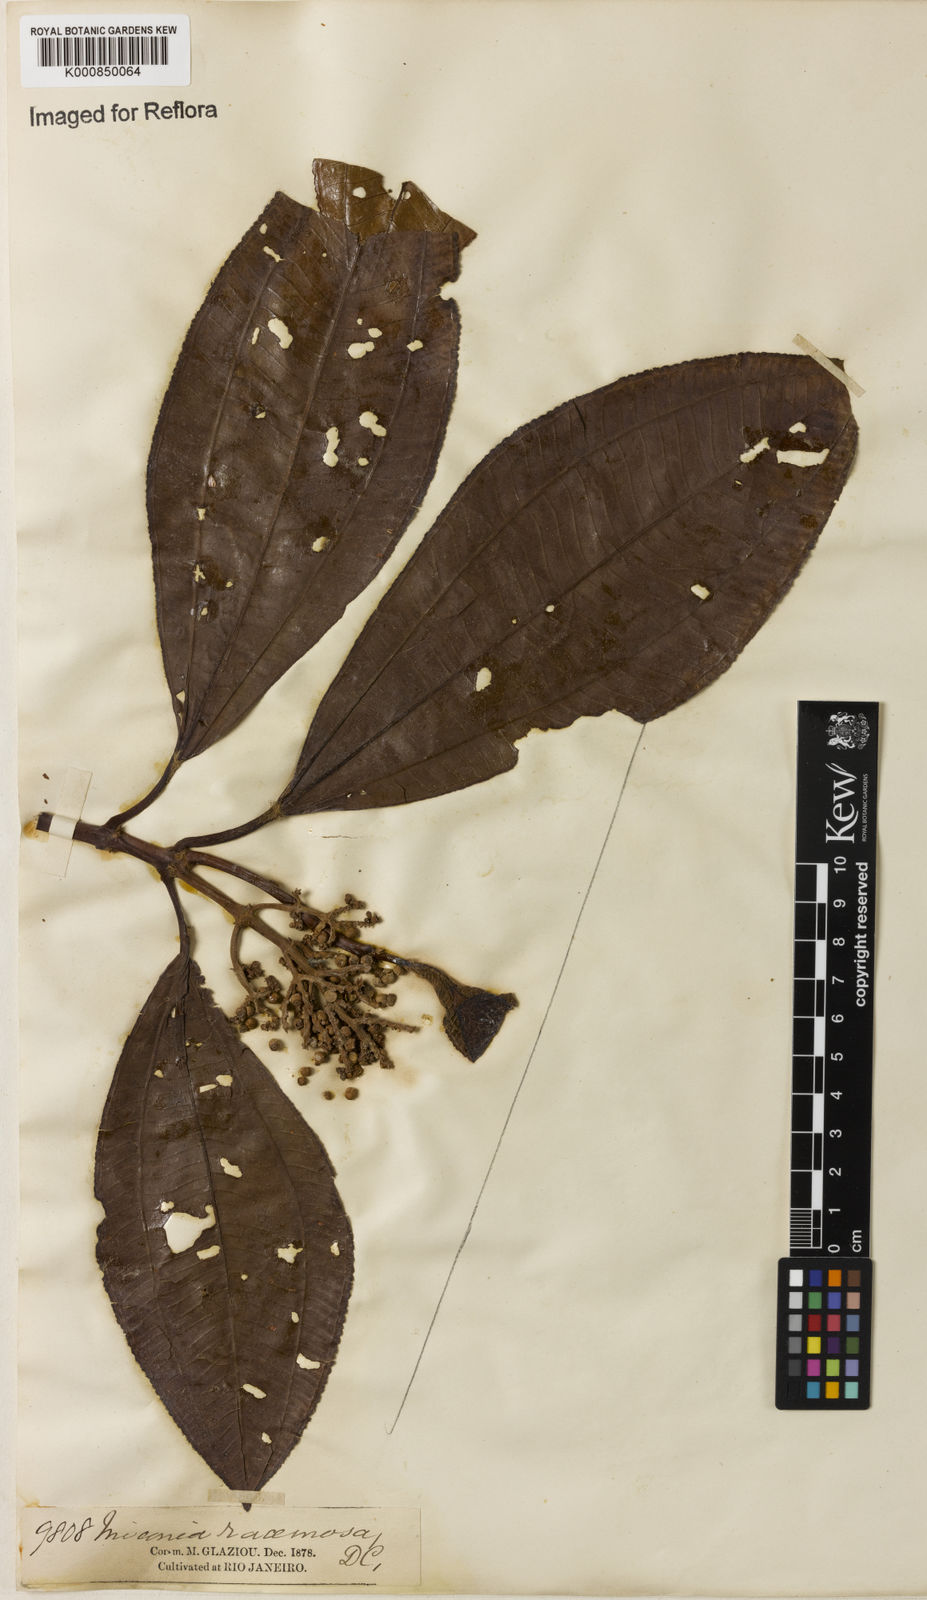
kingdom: Plantae
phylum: Tracheophyta
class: Magnoliopsida
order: Myrtales
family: Melastomataceae
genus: Miconia
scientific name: Miconia racemosa
